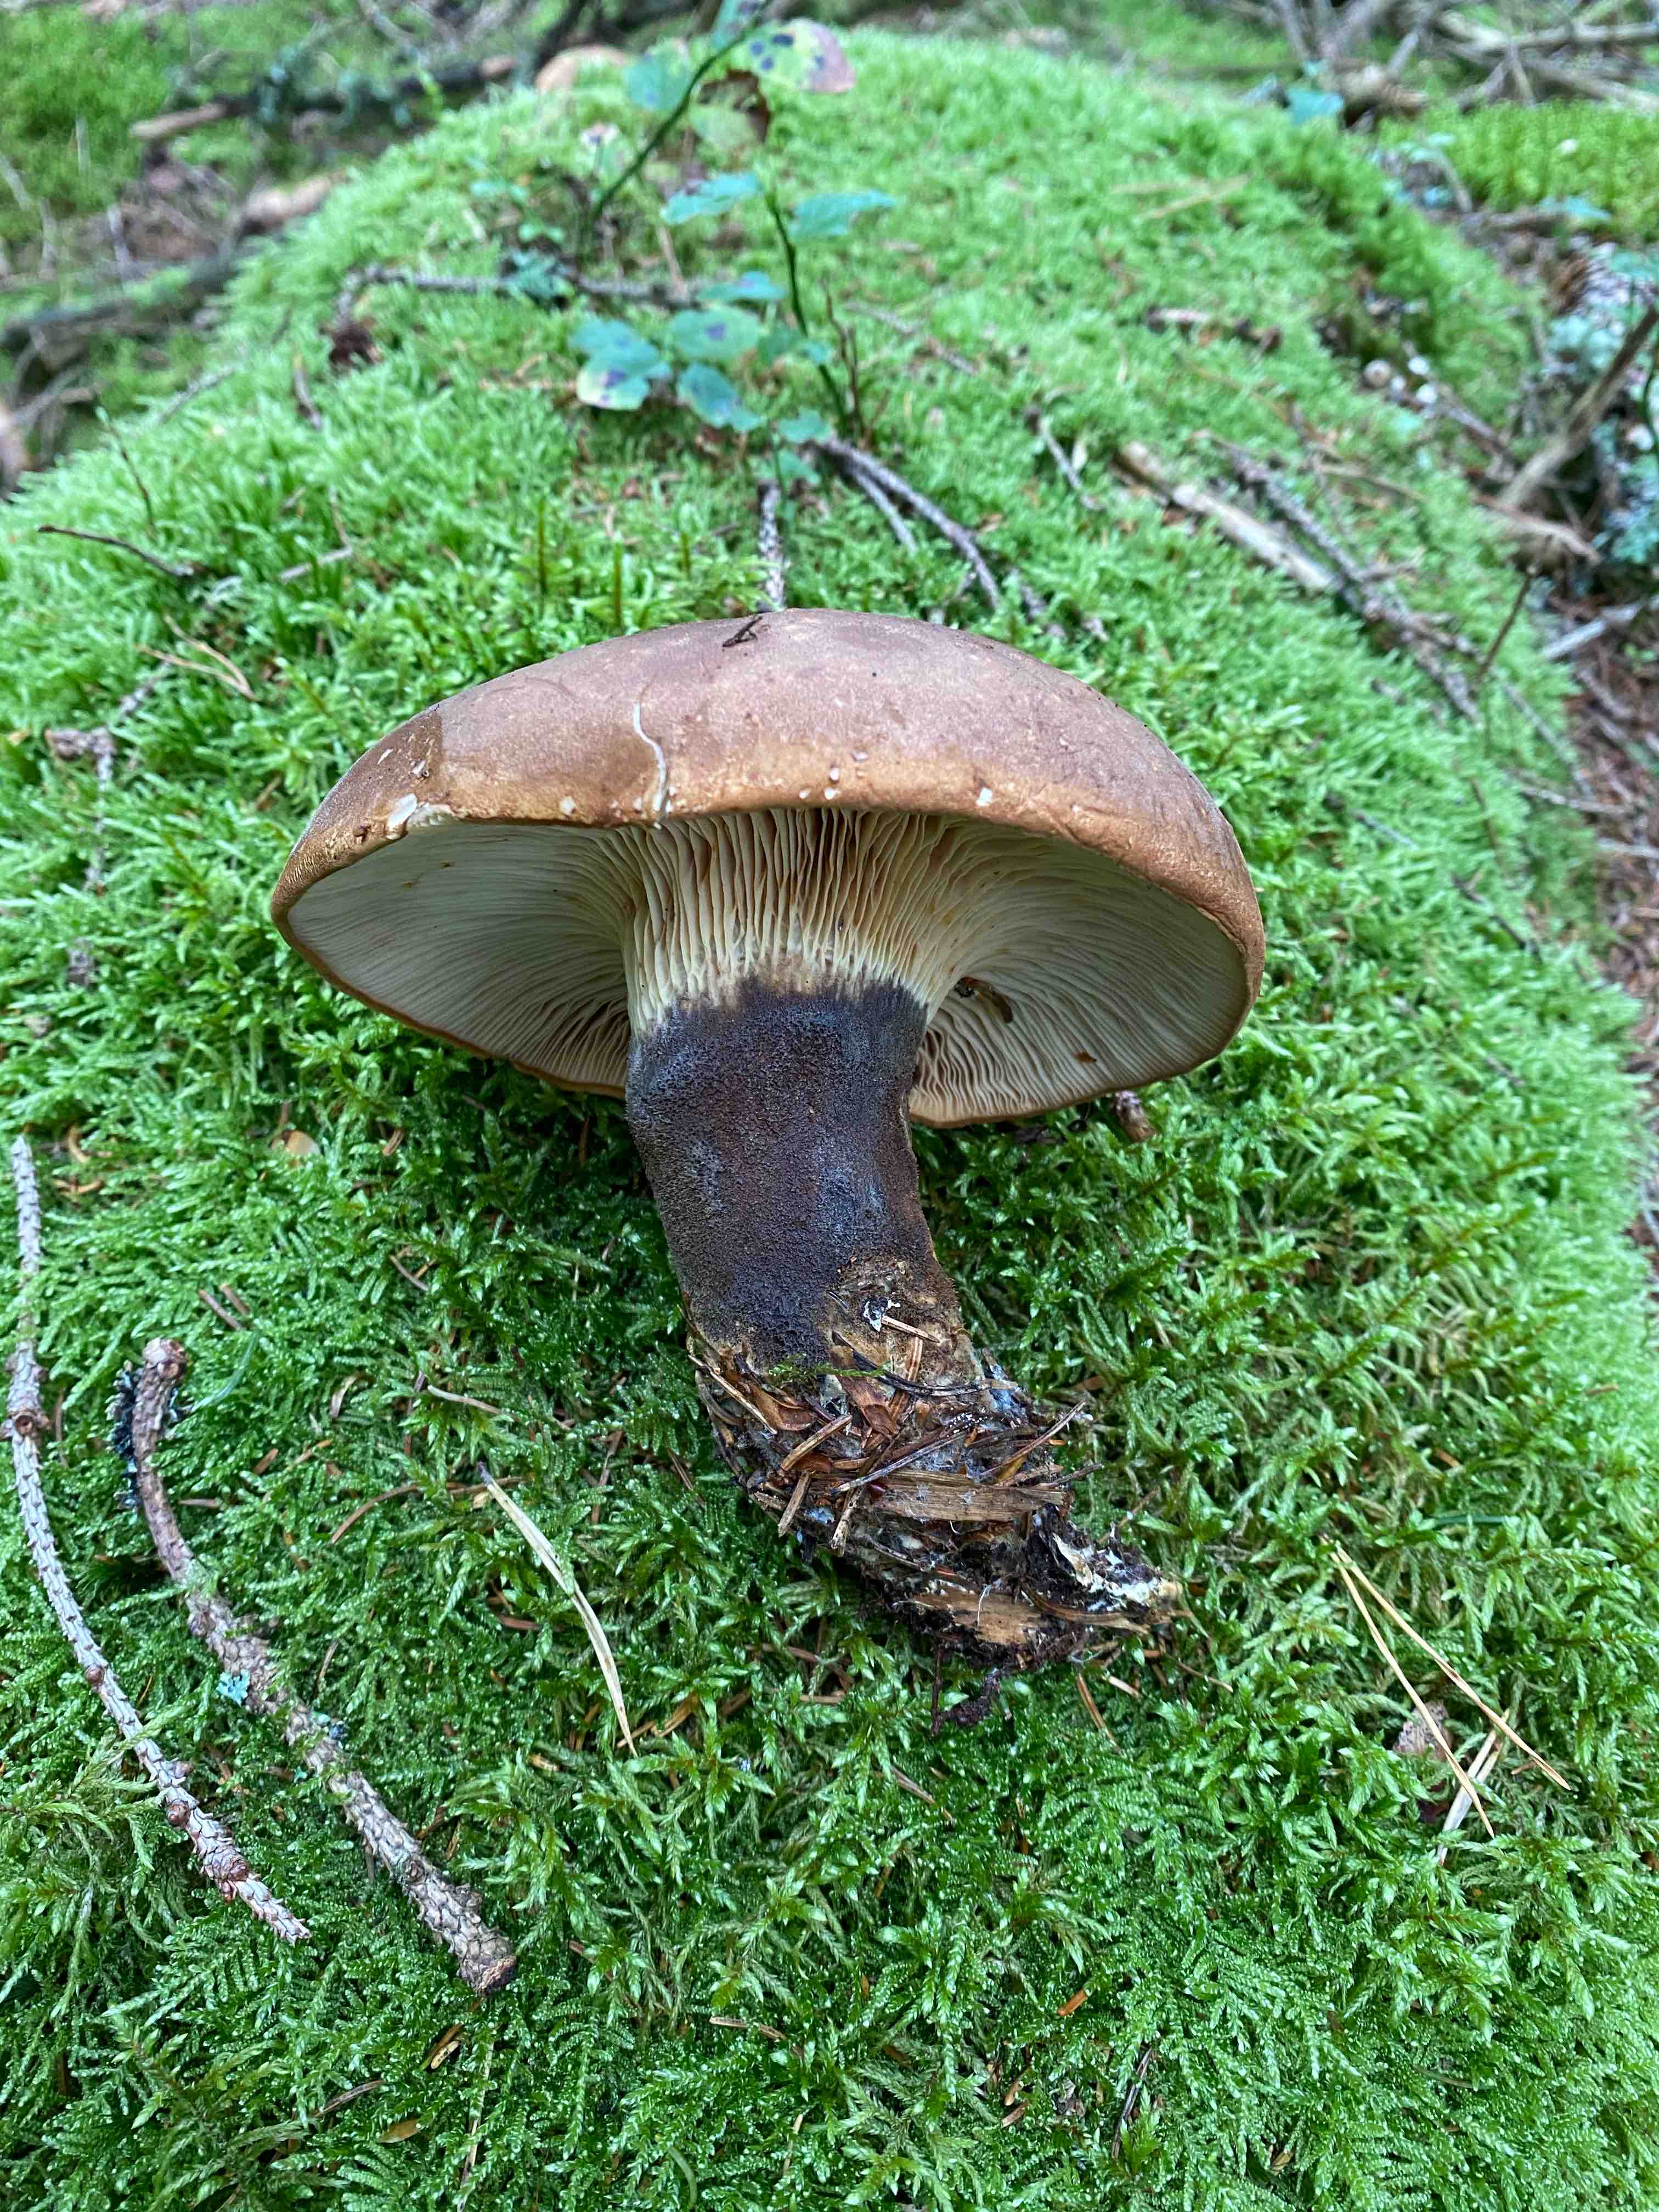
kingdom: Fungi
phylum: Basidiomycota
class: Agaricomycetes
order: Boletales
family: Tapinellaceae
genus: Tapinella
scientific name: Tapinella atrotomentosa
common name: sortfiltet viftesvamp
